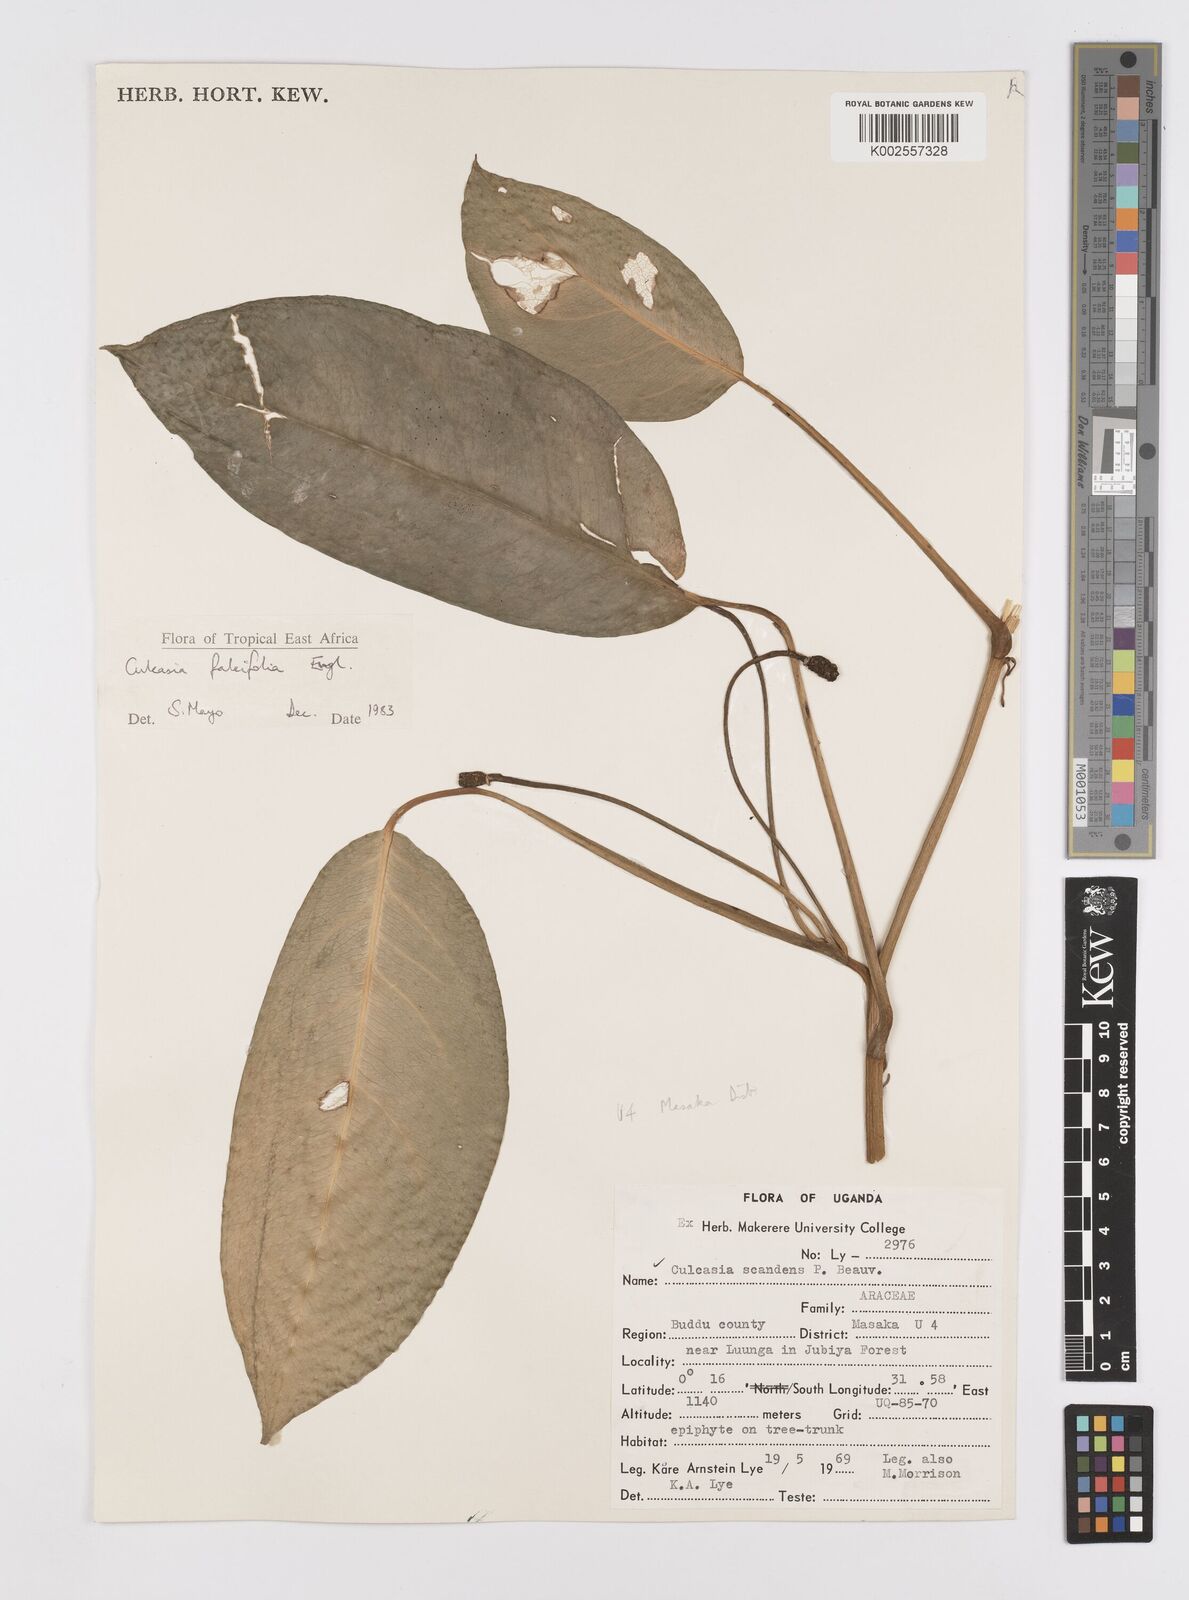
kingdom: Plantae
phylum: Tracheophyta
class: Liliopsida
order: Alismatales
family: Araceae
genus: Culcasia
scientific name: Culcasia falcifolia
